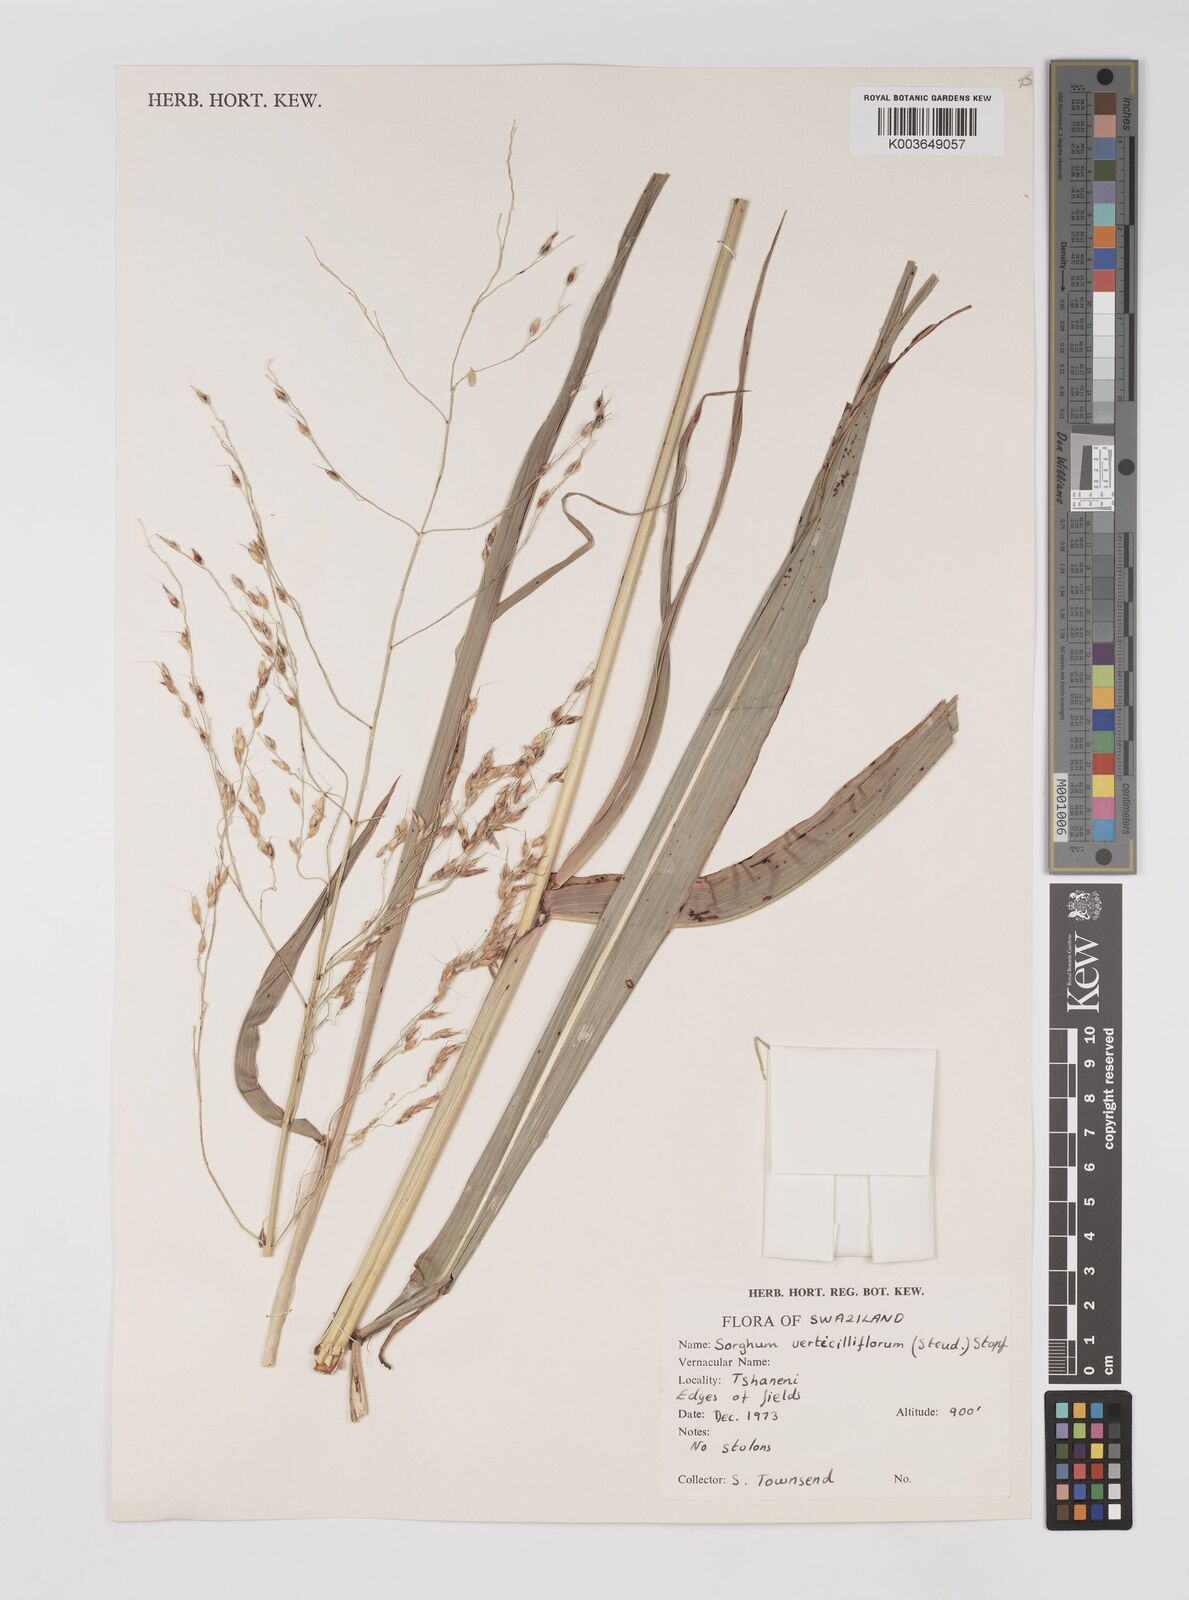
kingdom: Plantae
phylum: Tracheophyta
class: Liliopsida
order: Poales
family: Poaceae
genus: Sorghum
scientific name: Sorghum arundinaceum
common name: Sorghum
